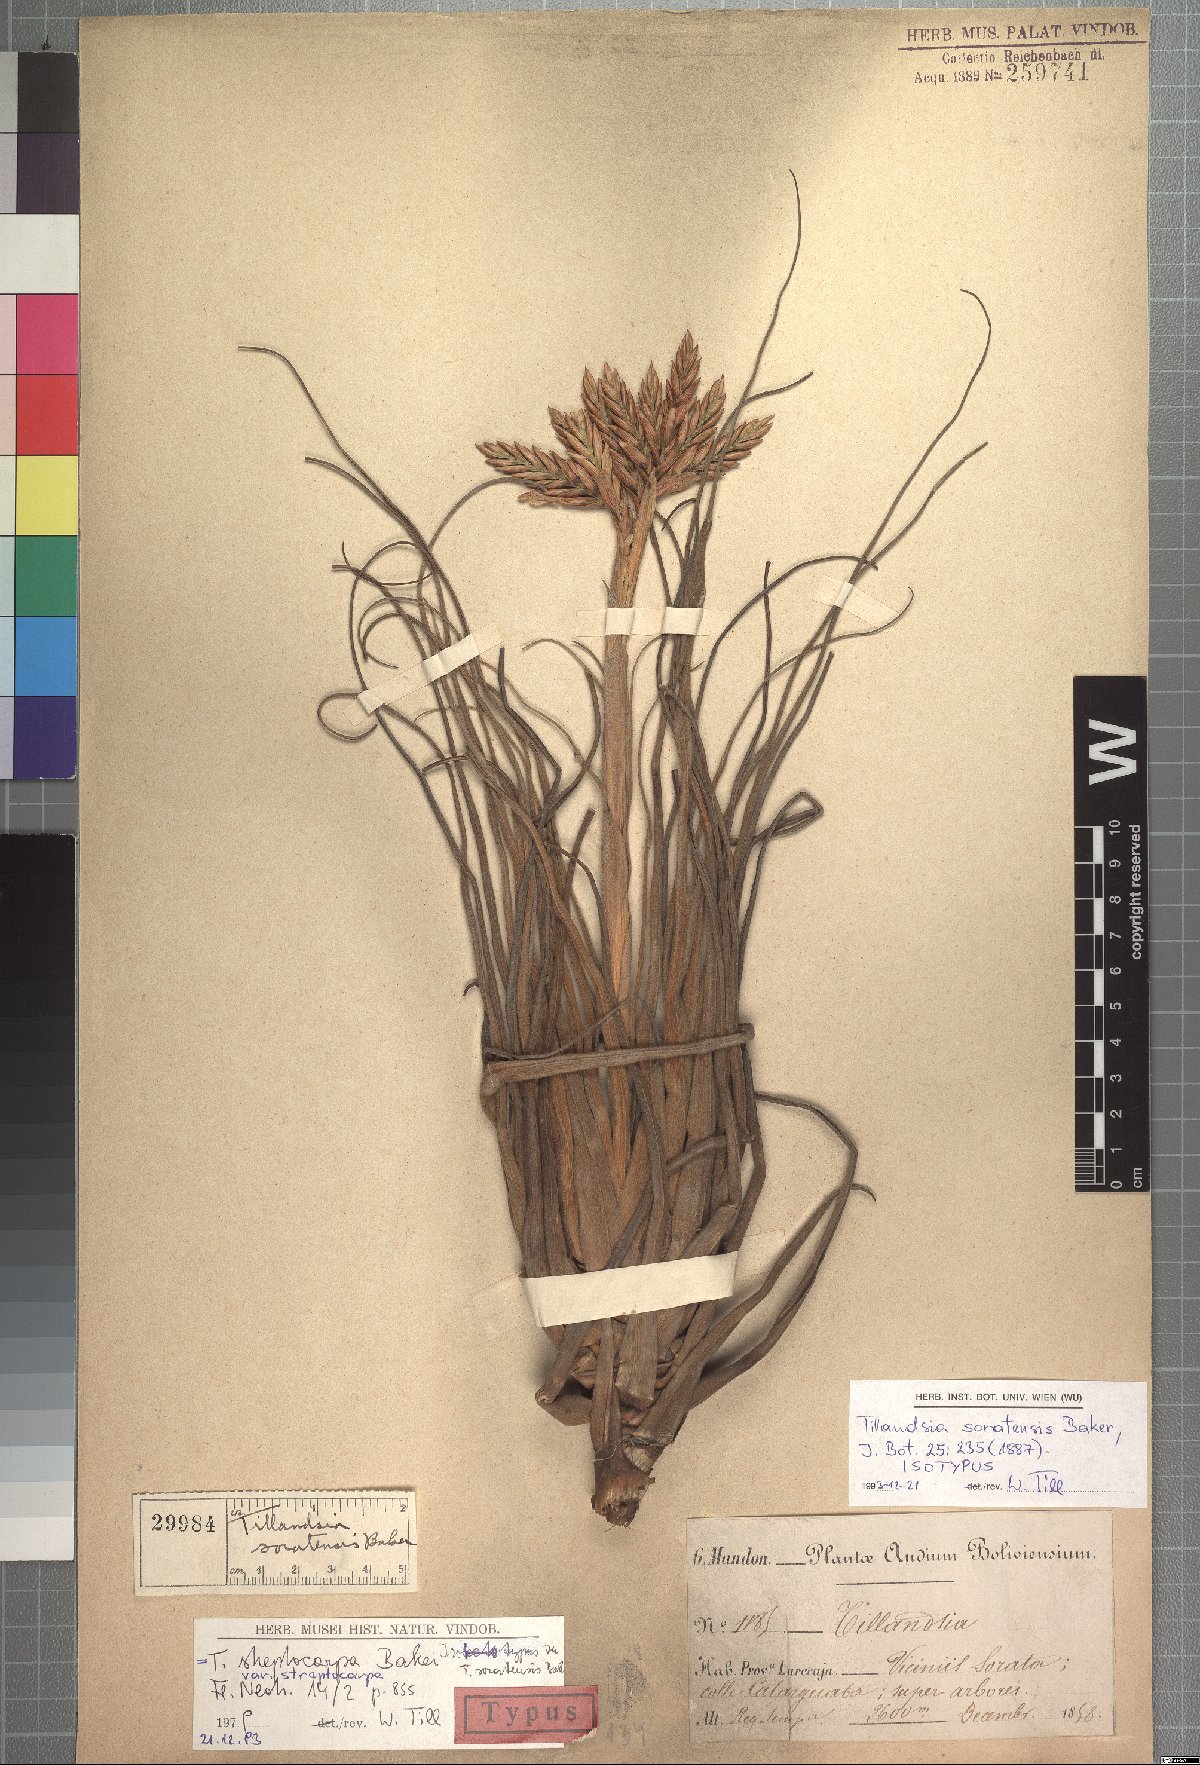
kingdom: Plantae
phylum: Tracheophyta
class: Liliopsida
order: Poales
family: Bromeliaceae
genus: Tillandsia
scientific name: Tillandsia streptocarpa
